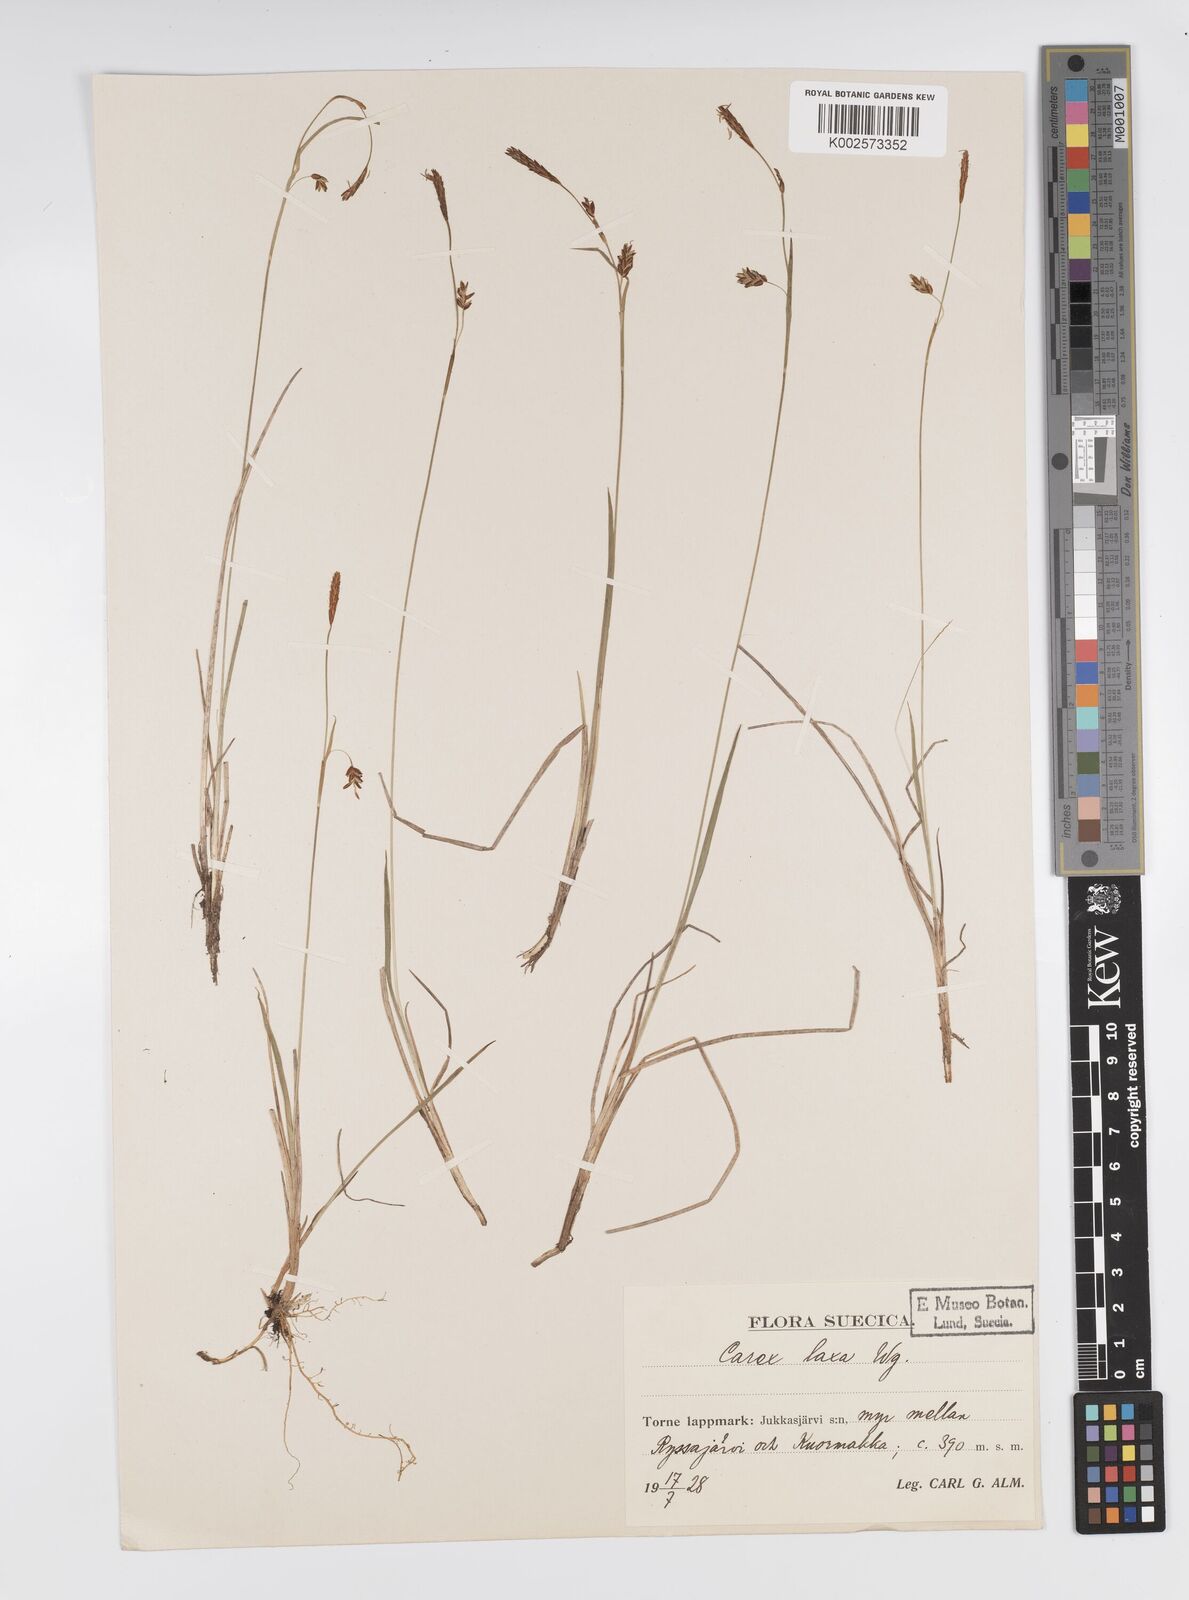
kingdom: Plantae
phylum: Tracheophyta
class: Liliopsida
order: Poales
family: Cyperaceae
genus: Carex
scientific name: Carex laxa
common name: Weak sedge
